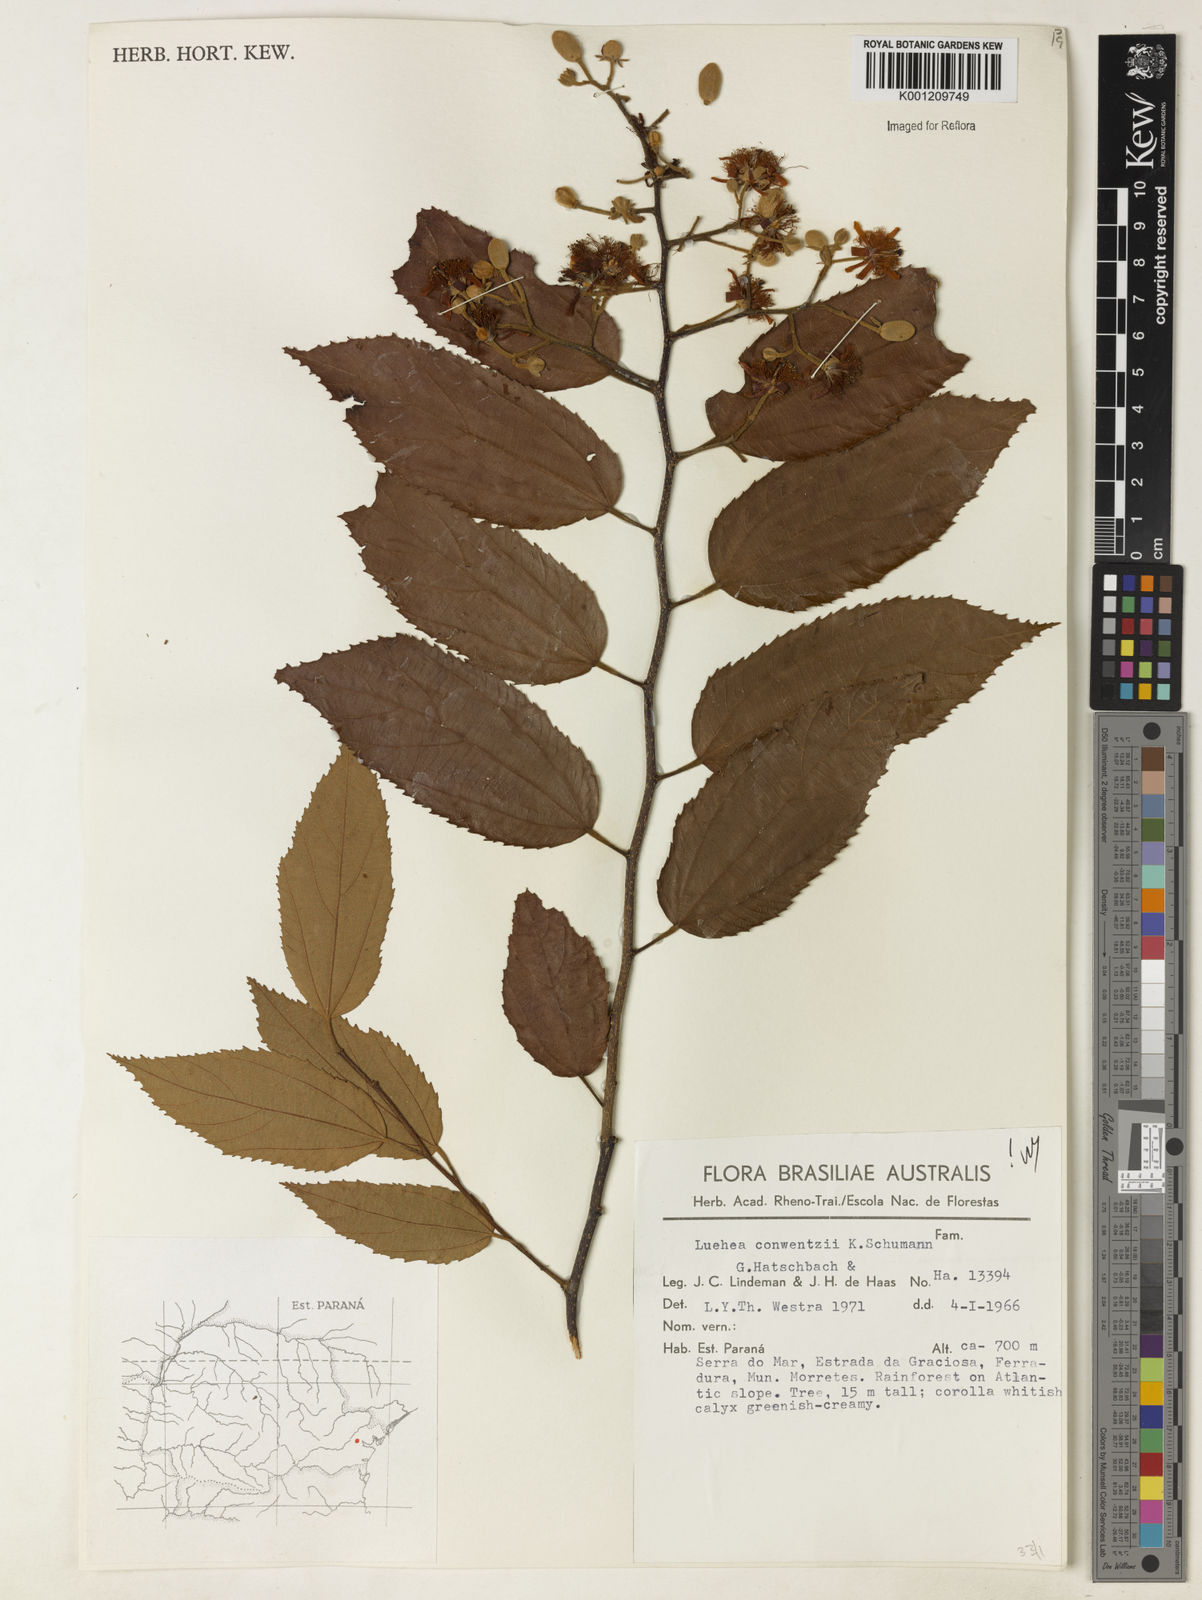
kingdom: Plantae
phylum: Tracheophyta
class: Magnoliopsida
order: Malvales
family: Malvaceae
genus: Luehea
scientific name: Luehea
